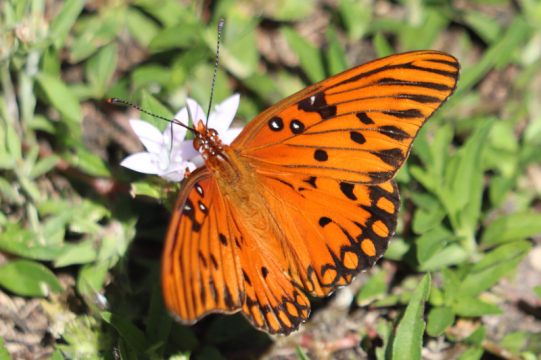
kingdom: Animalia
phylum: Arthropoda
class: Insecta
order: Lepidoptera
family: Nymphalidae
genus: Dione
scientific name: Dione vanillae
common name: Gulf Fritillary
